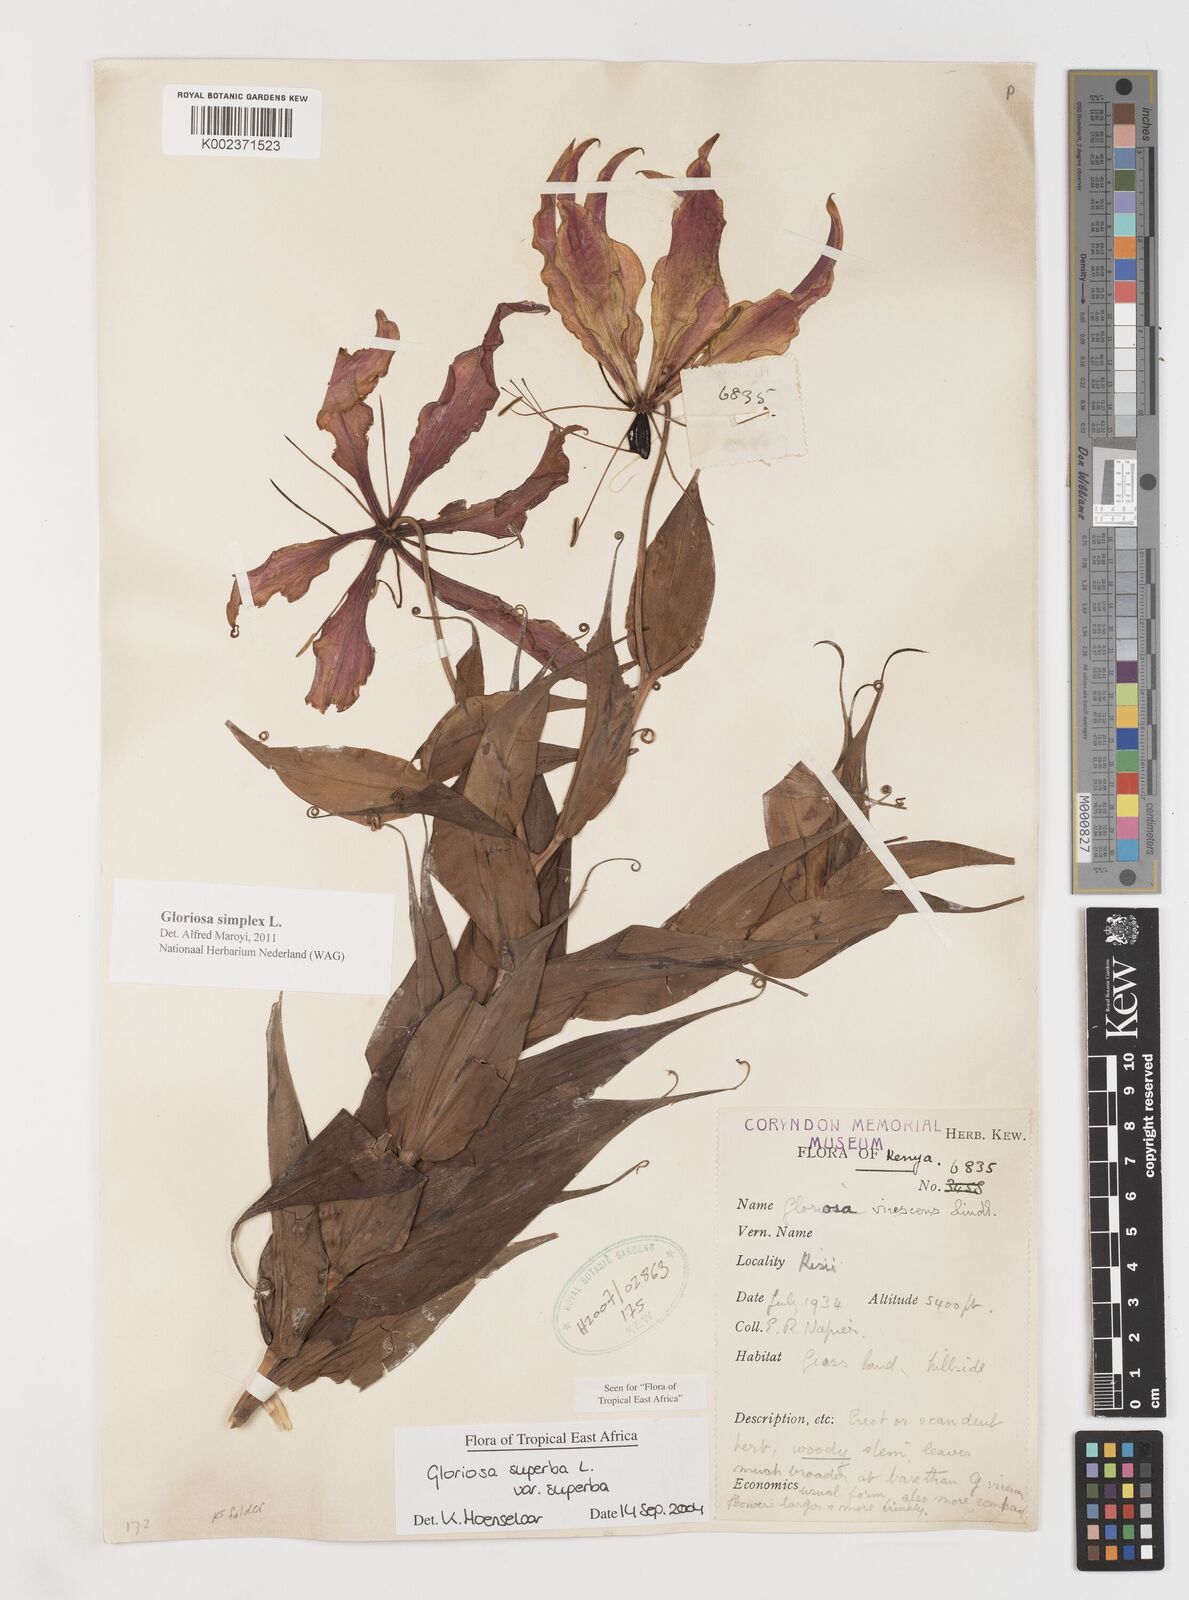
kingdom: Plantae
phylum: Tracheophyta
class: Liliopsida
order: Liliales
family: Colchicaceae
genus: Gloriosa
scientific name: Gloriosa
